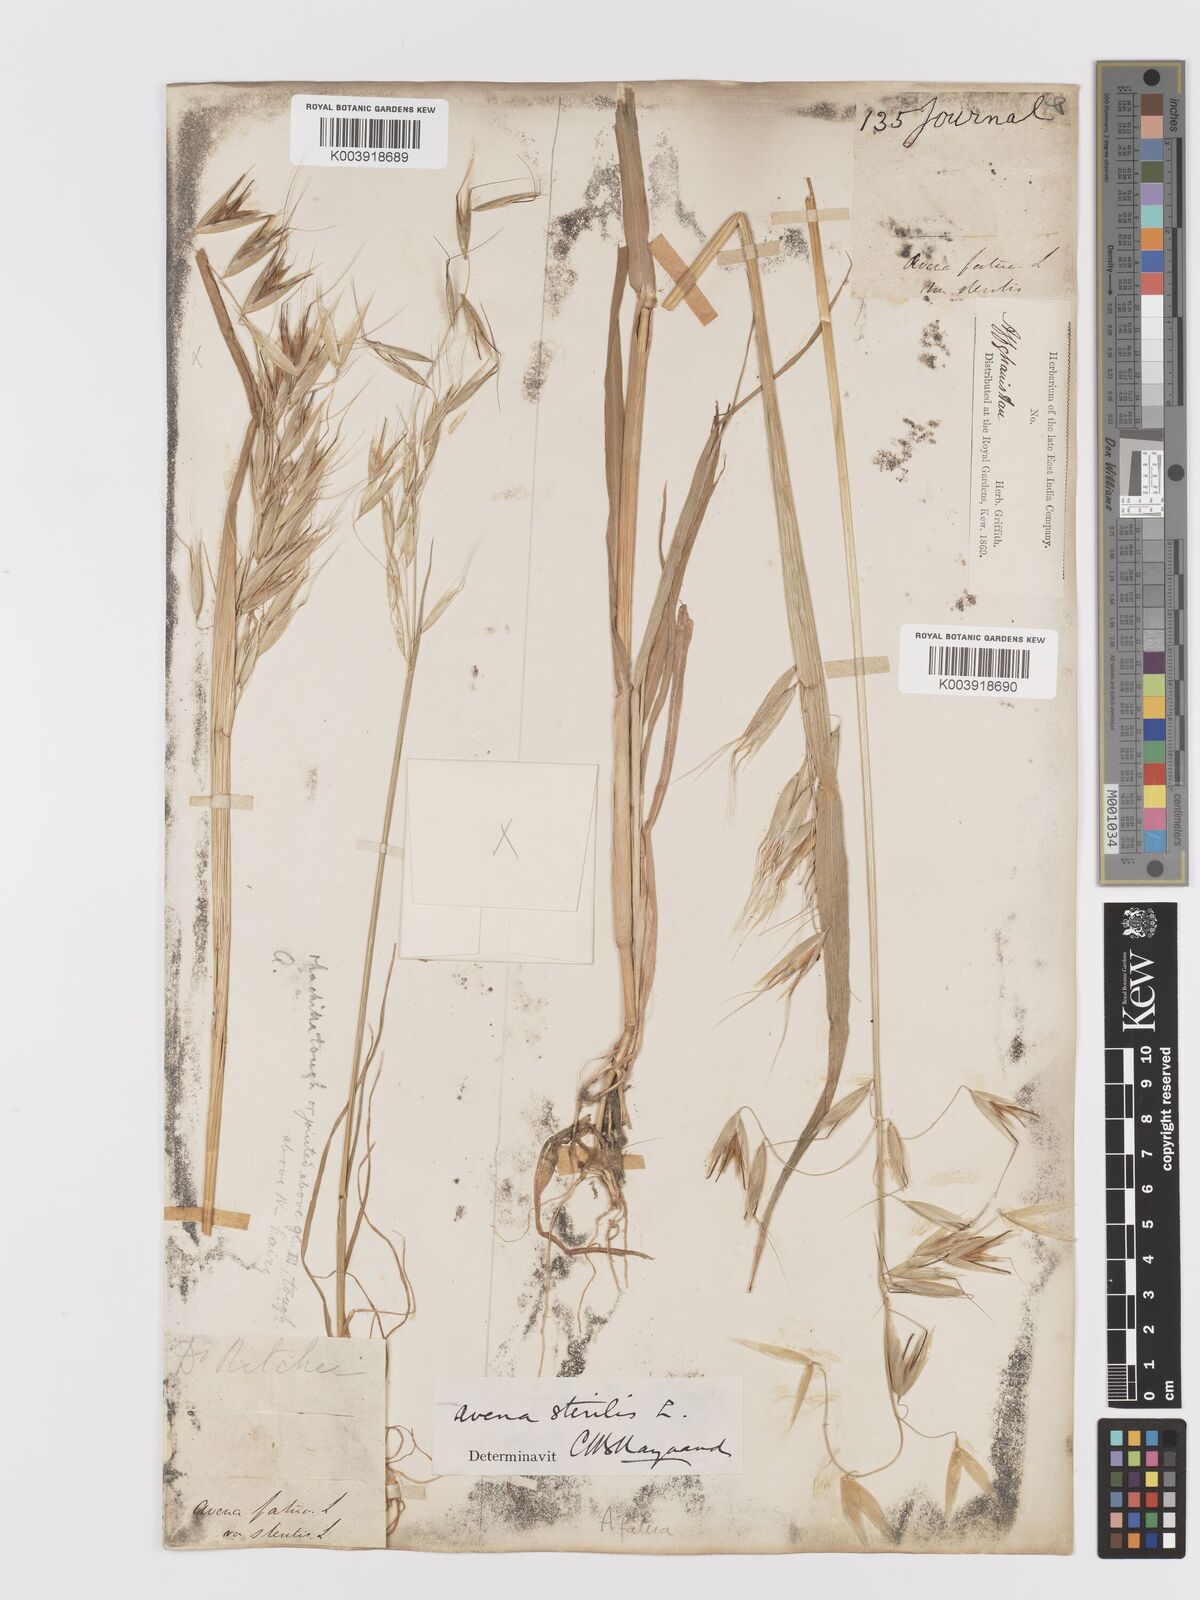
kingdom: Plantae
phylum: Tracheophyta
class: Liliopsida
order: Poales
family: Poaceae
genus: Avena
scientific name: Avena fatua
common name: Wild oat
